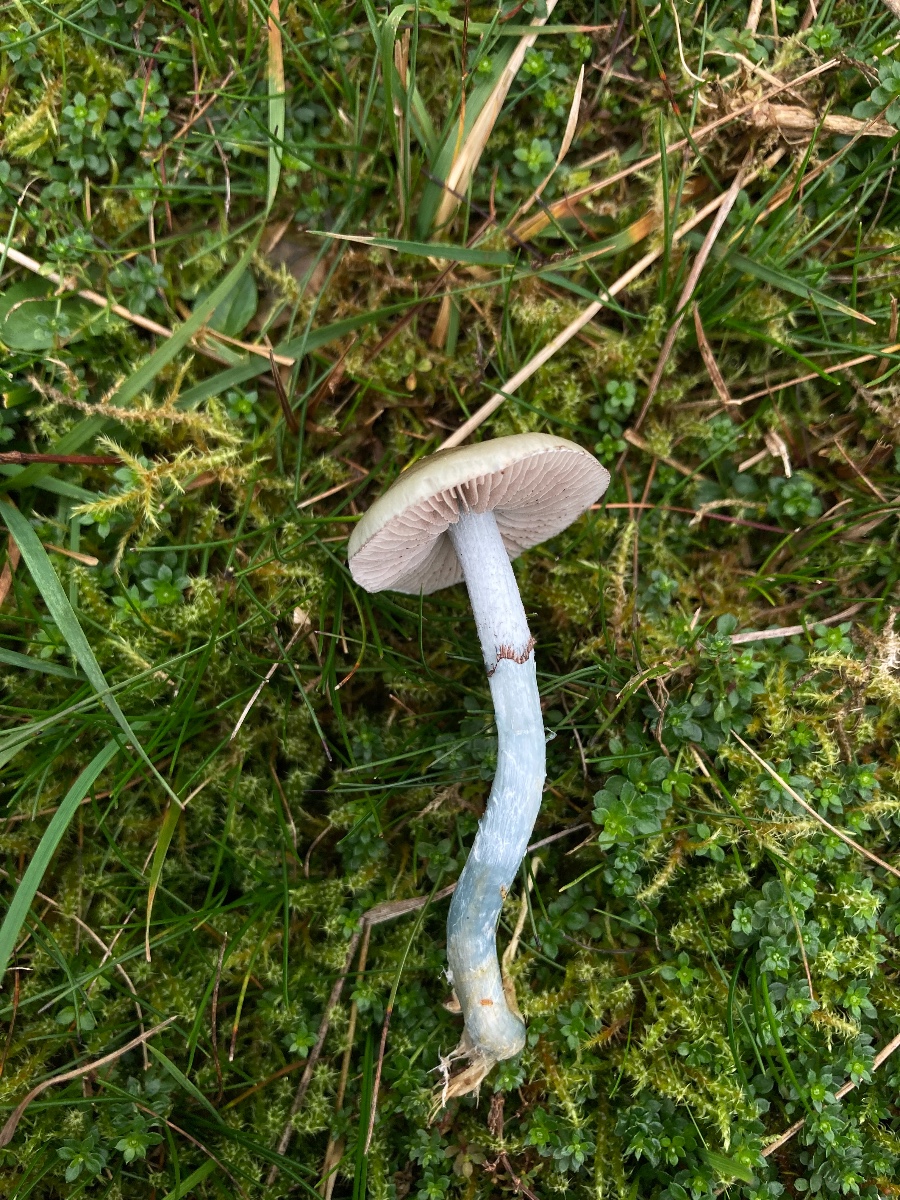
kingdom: Fungi
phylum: Basidiomycota
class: Agaricomycetes
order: Agaricales
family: Strophariaceae
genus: Stropharia
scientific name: Stropharia pseudocyanea
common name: blegblå bredblad
